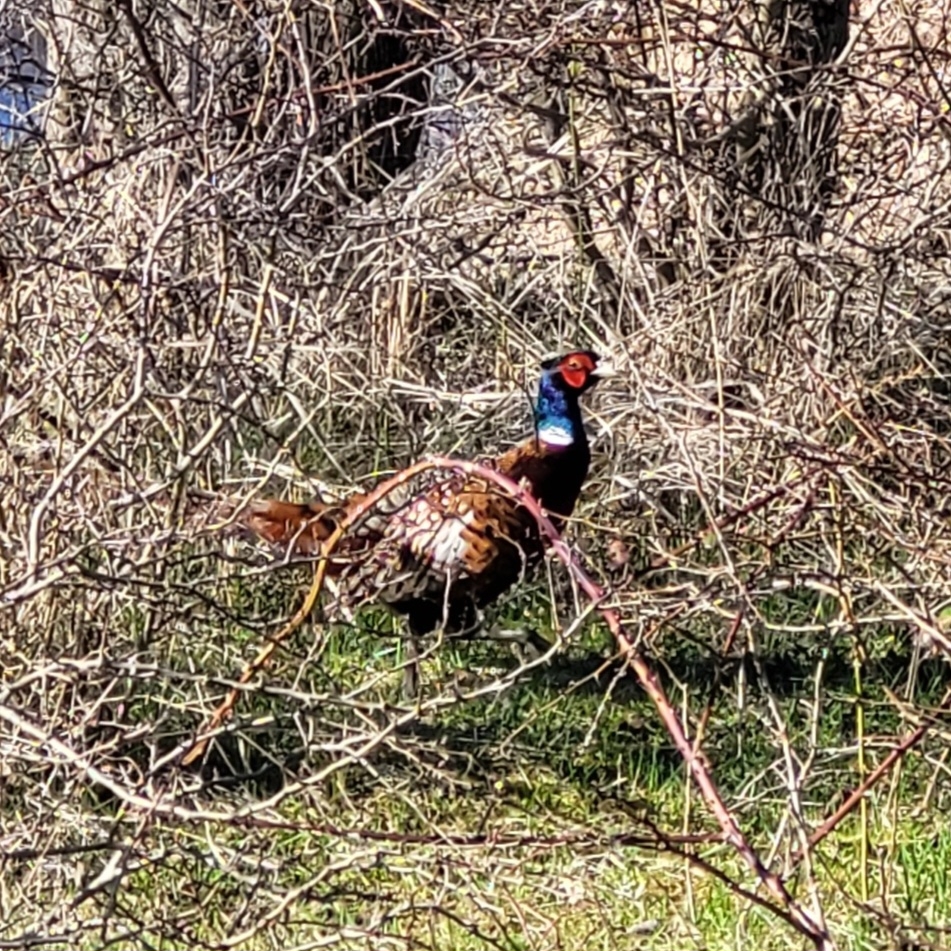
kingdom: Animalia
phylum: Chordata
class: Aves
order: Galliformes
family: Phasianidae
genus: Phasianus
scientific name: Phasianus colchicus
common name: Fasan
